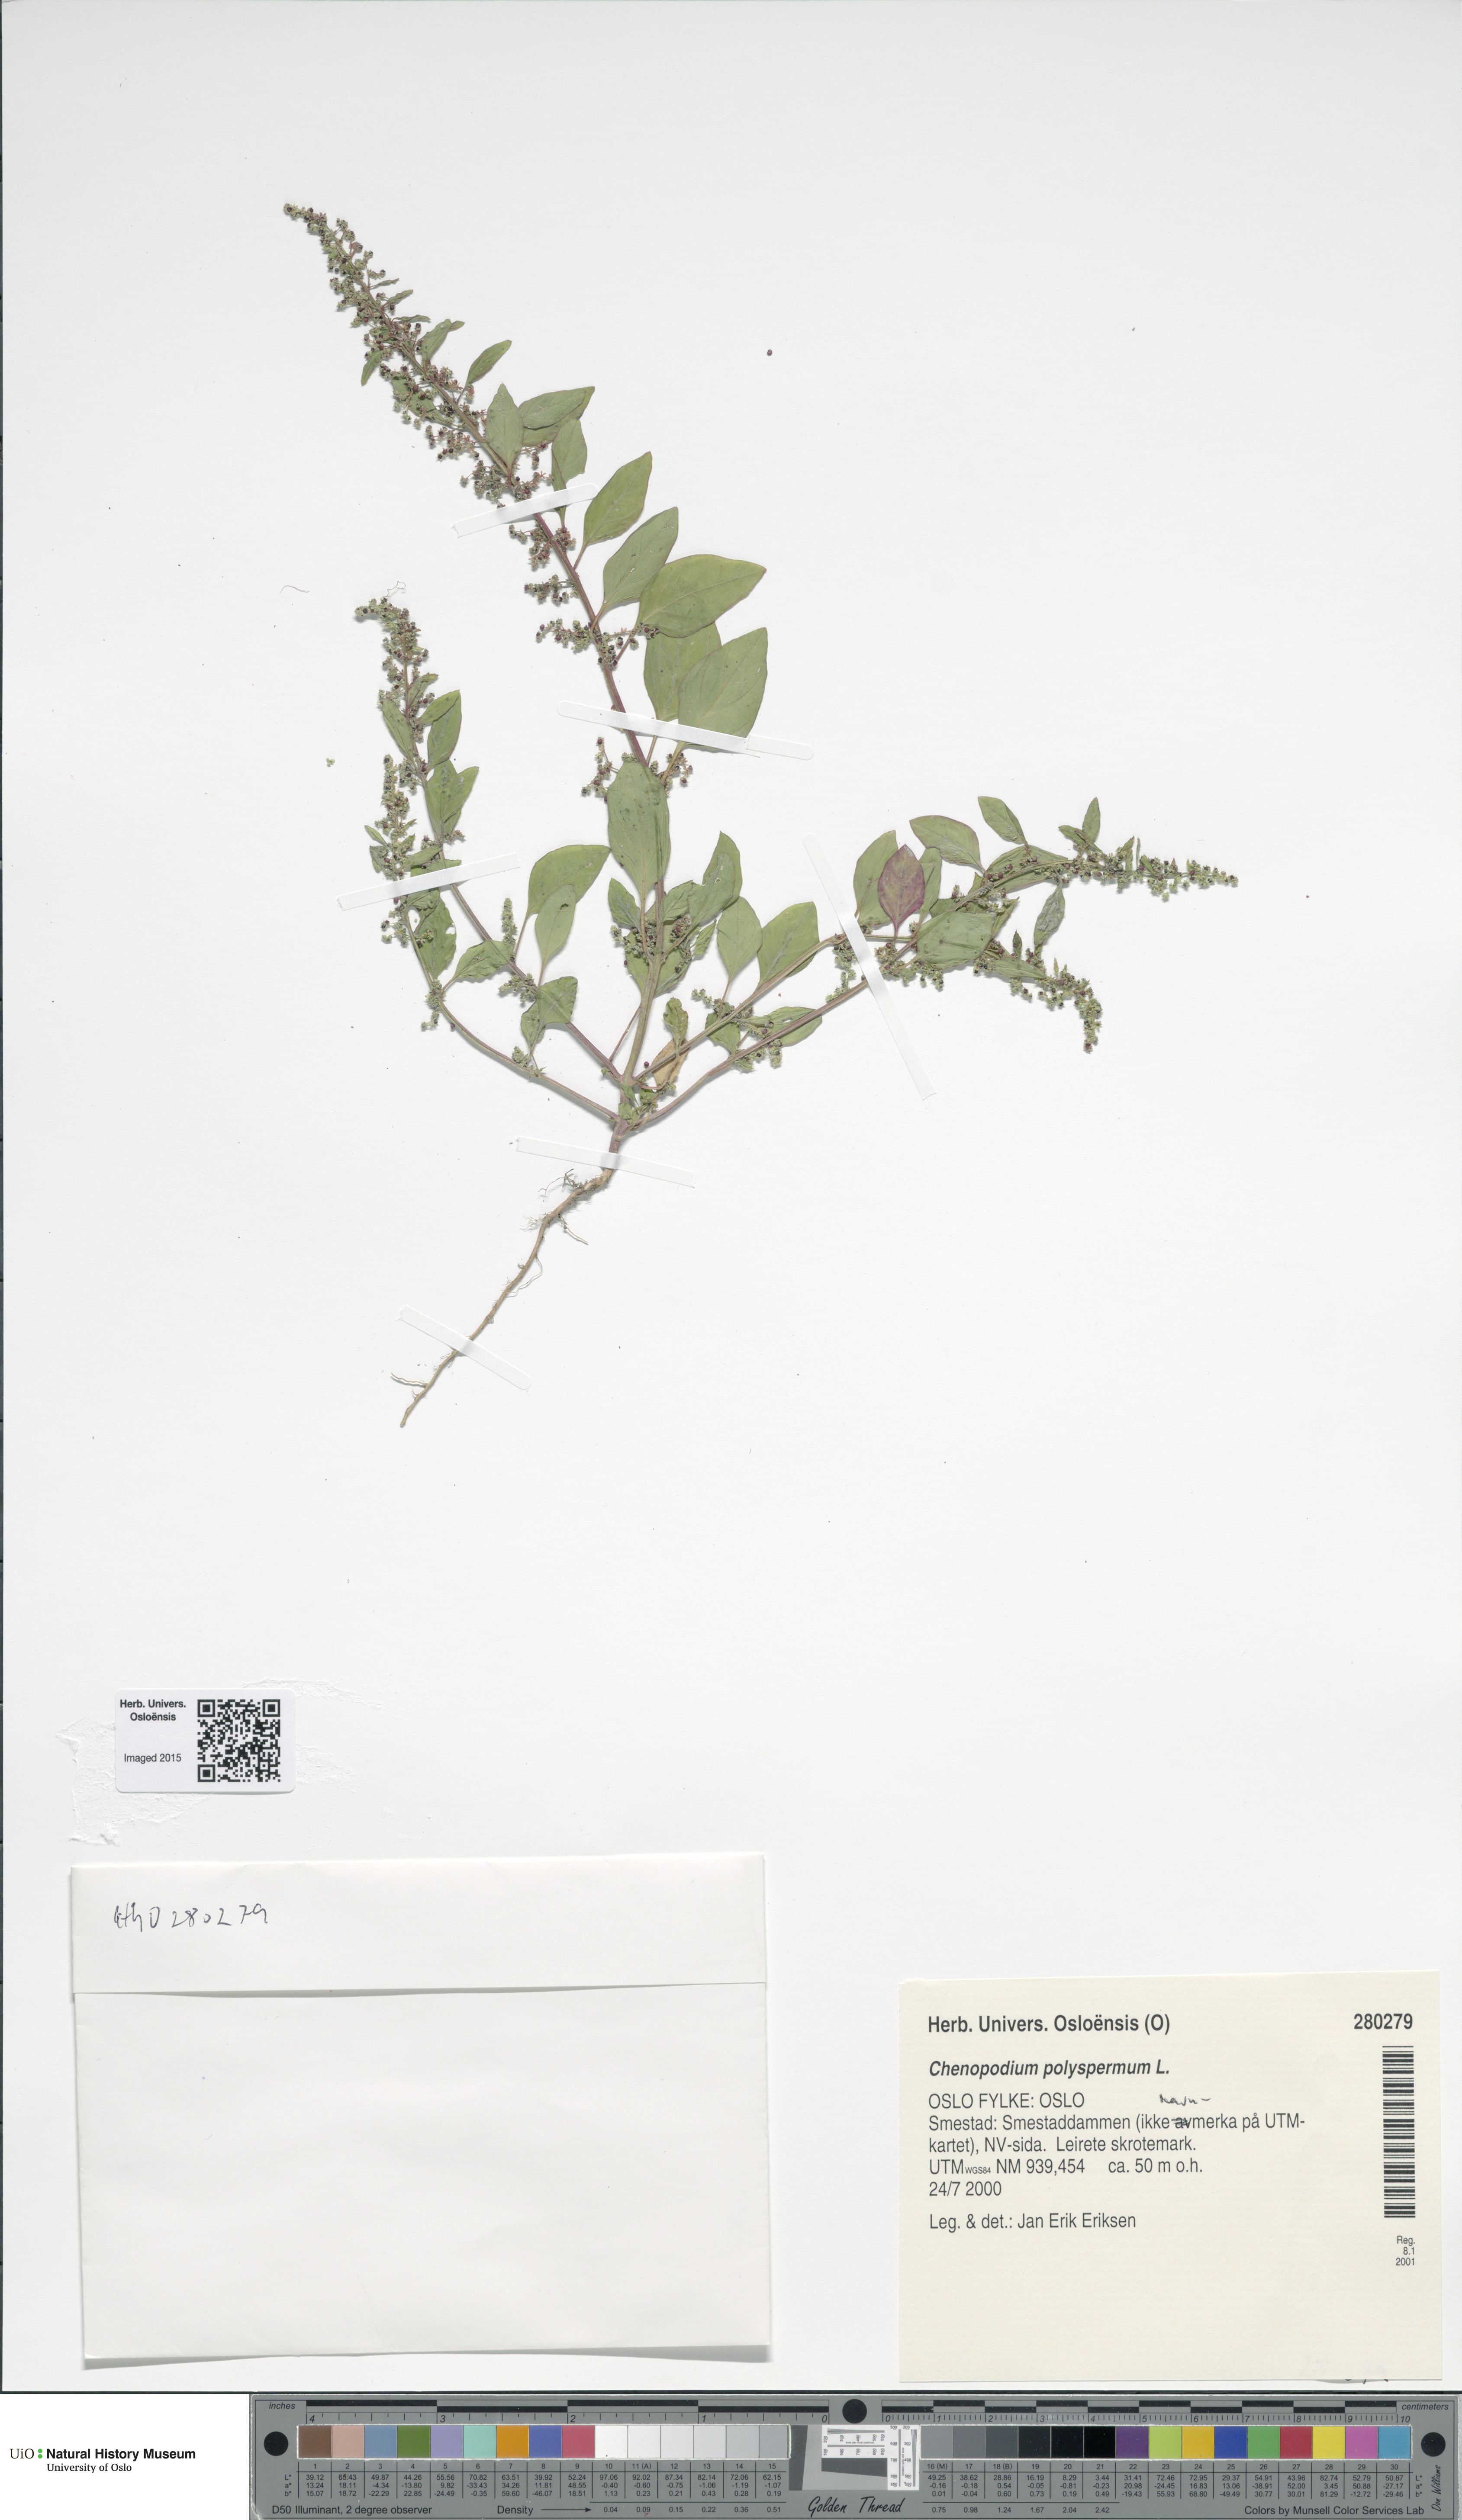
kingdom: Plantae
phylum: Tracheophyta
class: Magnoliopsida
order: Caryophyllales
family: Amaranthaceae
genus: Lipandra
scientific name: Lipandra polysperma
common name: Many-seed goosefoot
